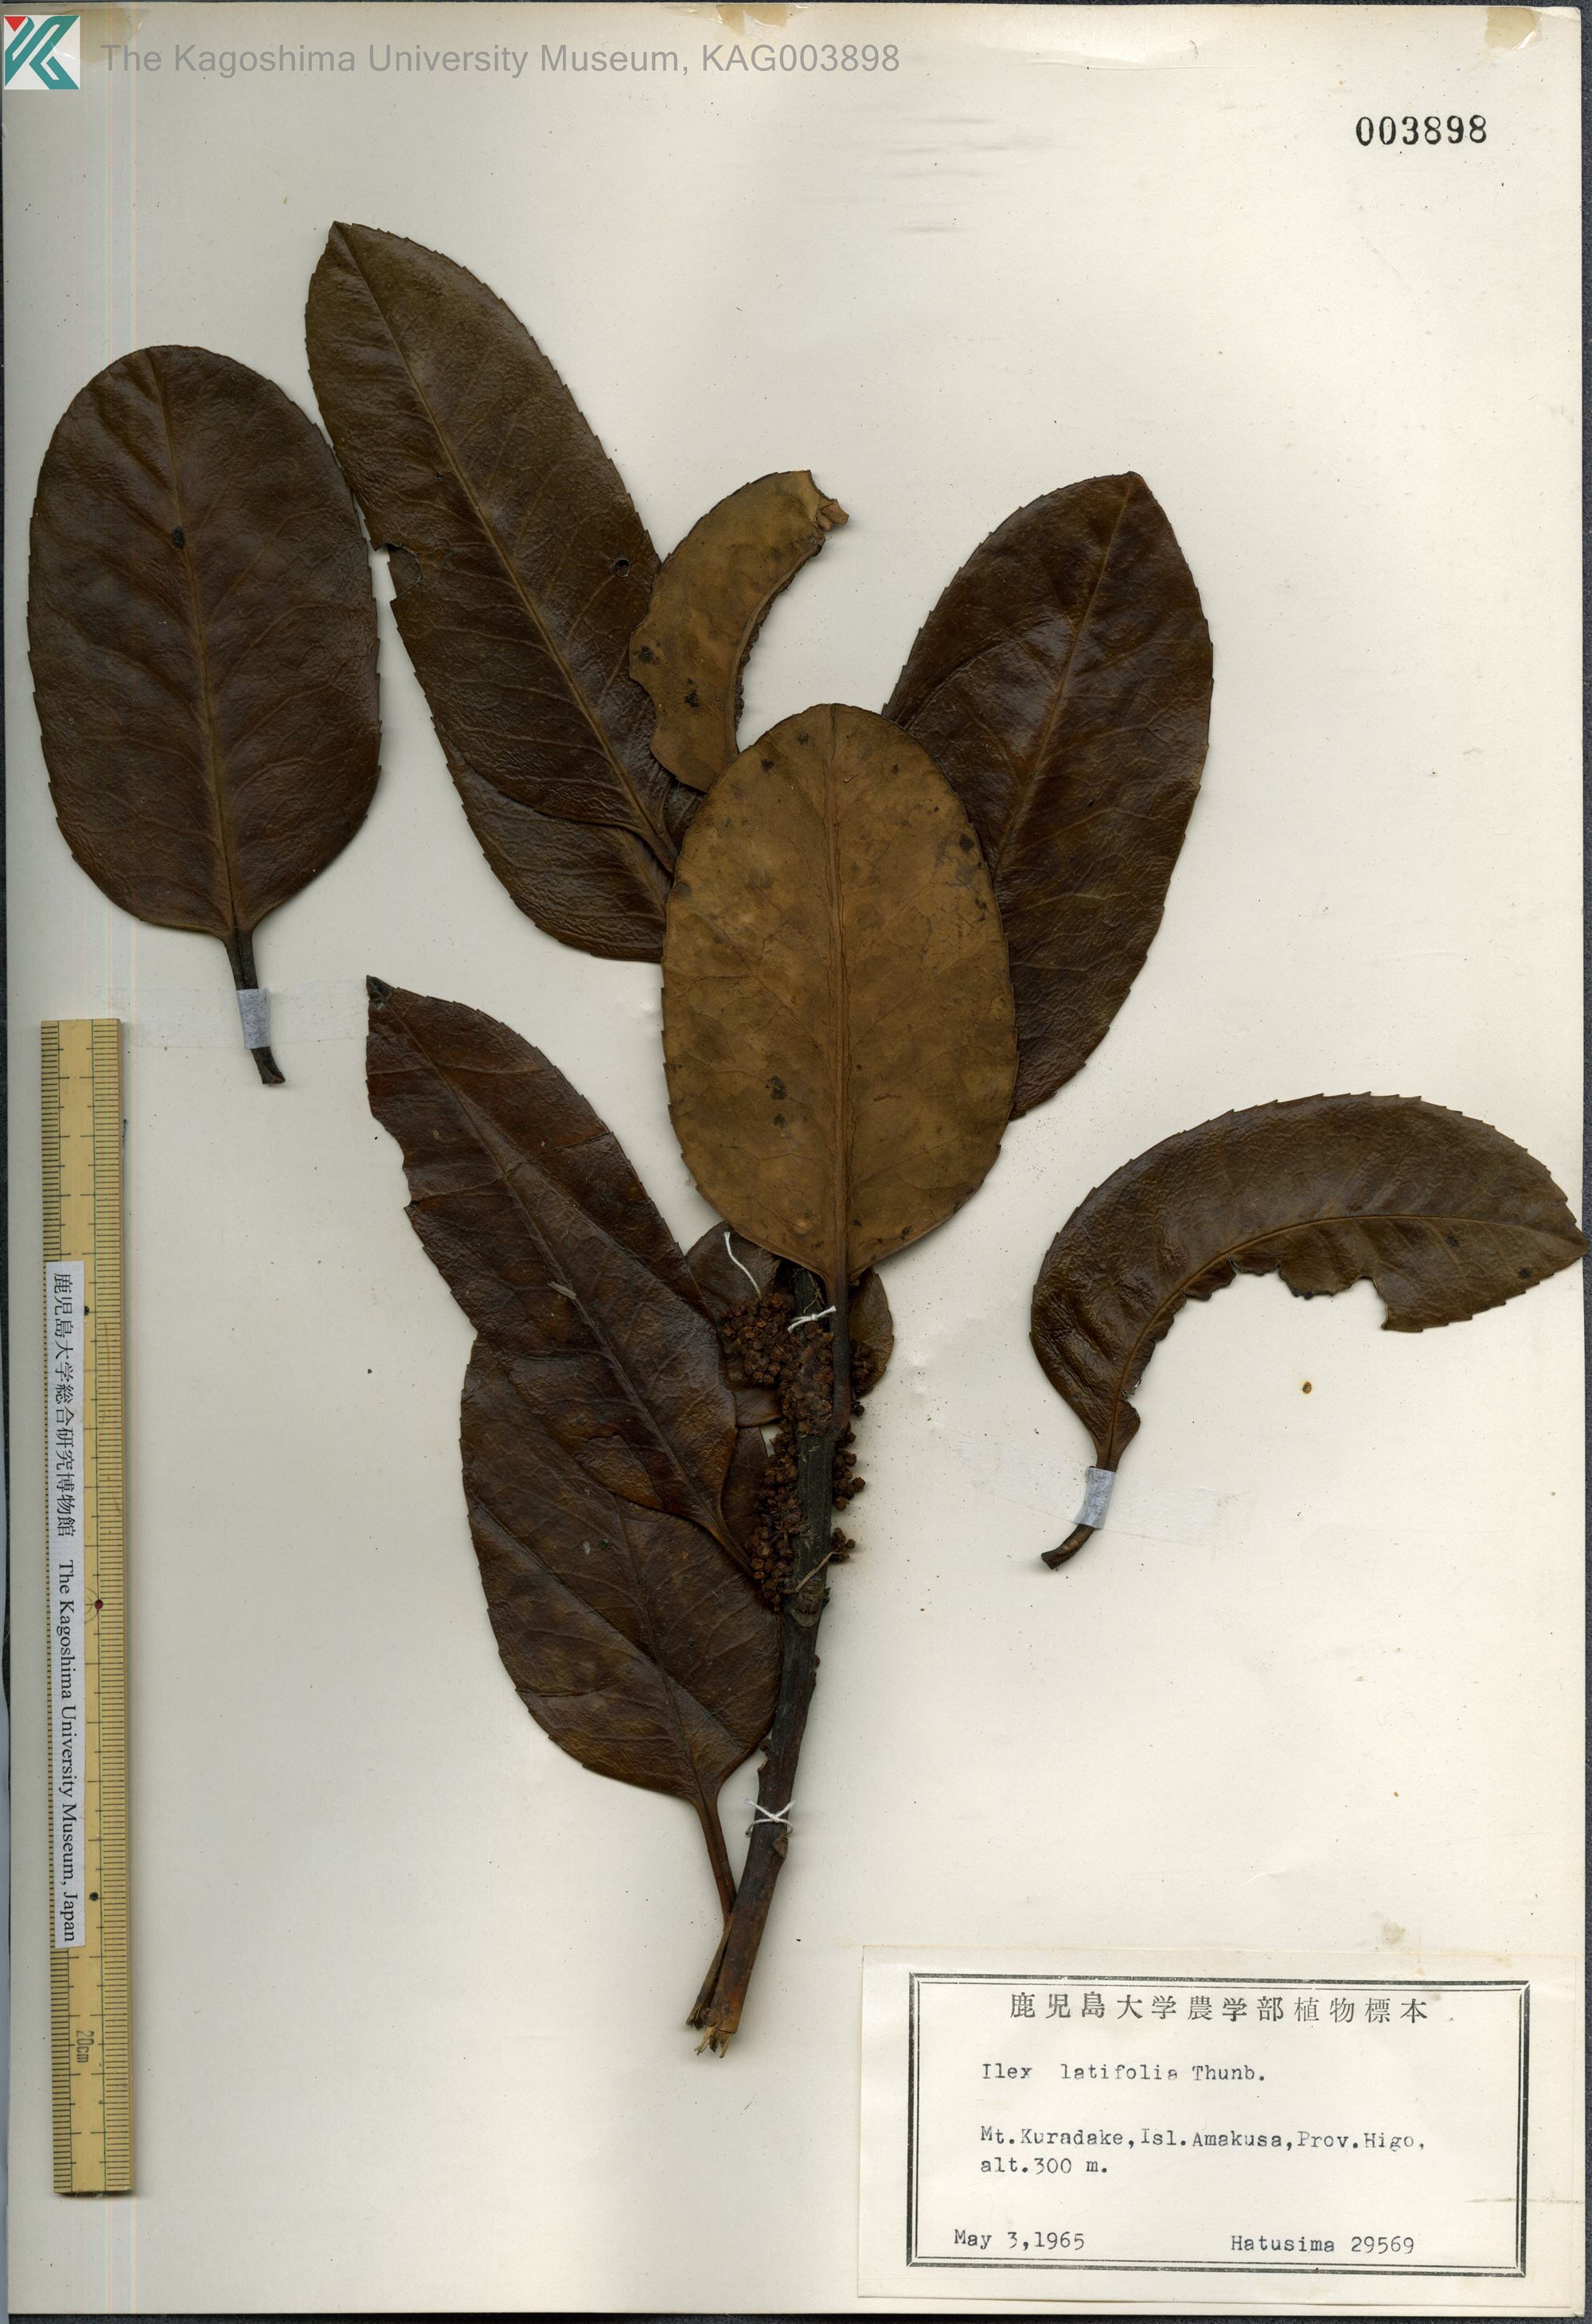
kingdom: Plantae
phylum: Tracheophyta
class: Magnoliopsida
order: Aquifoliales
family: Aquifoliaceae
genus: Ilex
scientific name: Ilex latifolia
